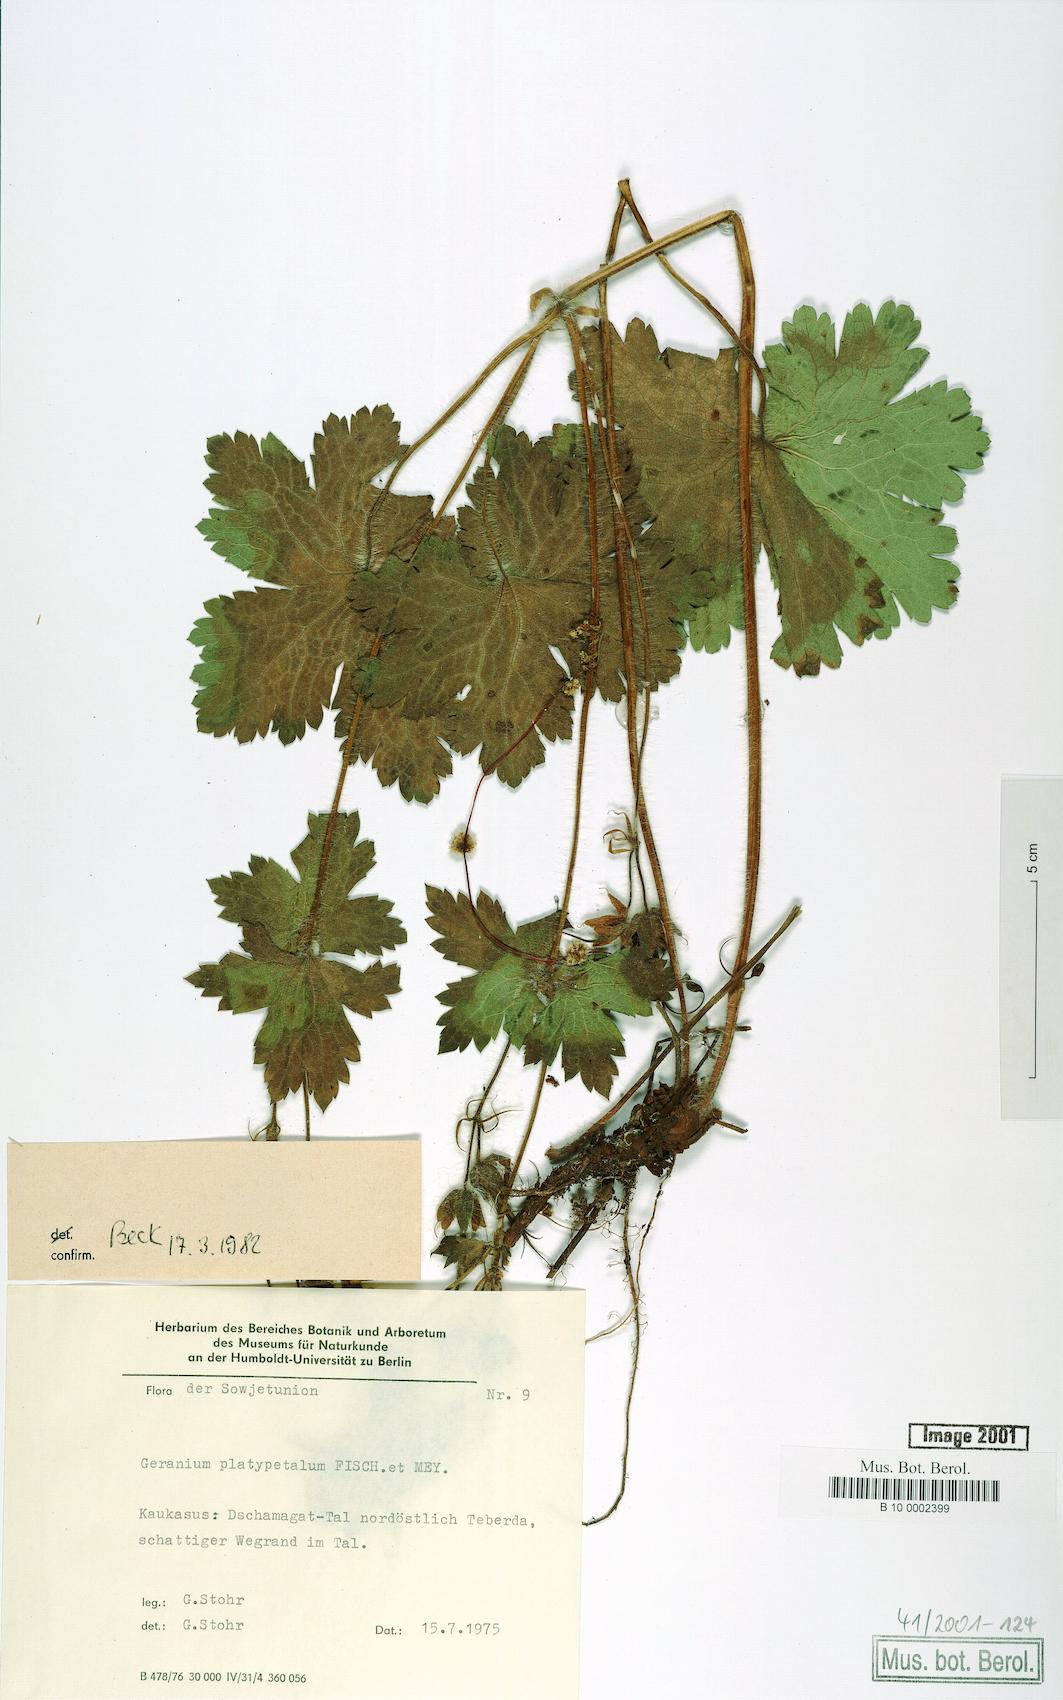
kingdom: Plantae
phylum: Tracheophyta
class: Magnoliopsida
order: Geraniales
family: Geraniaceae
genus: Geranium
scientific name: Geranium platypetalum
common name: Glandular crane's-bill
